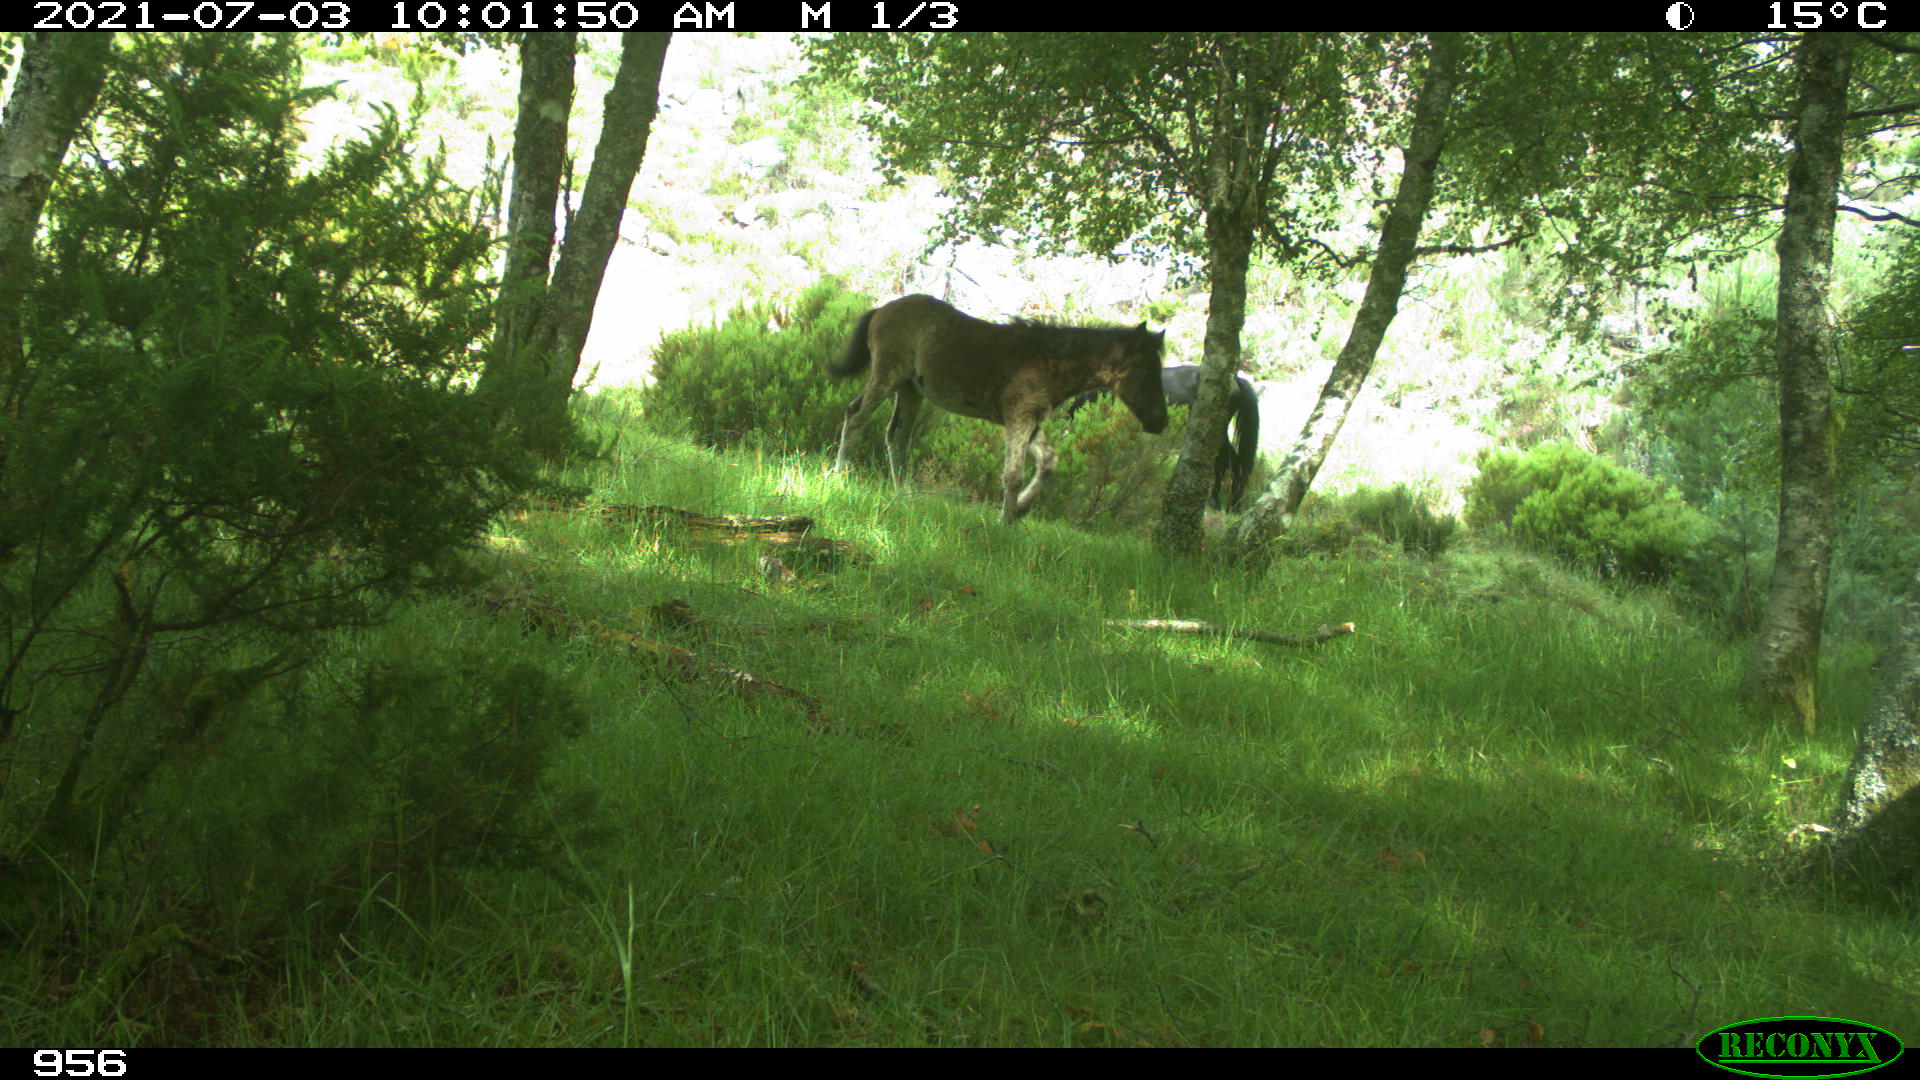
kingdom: Animalia
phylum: Chordata
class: Mammalia
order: Perissodactyla
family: Equidae
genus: Equus
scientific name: Equus caballus
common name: Horse
